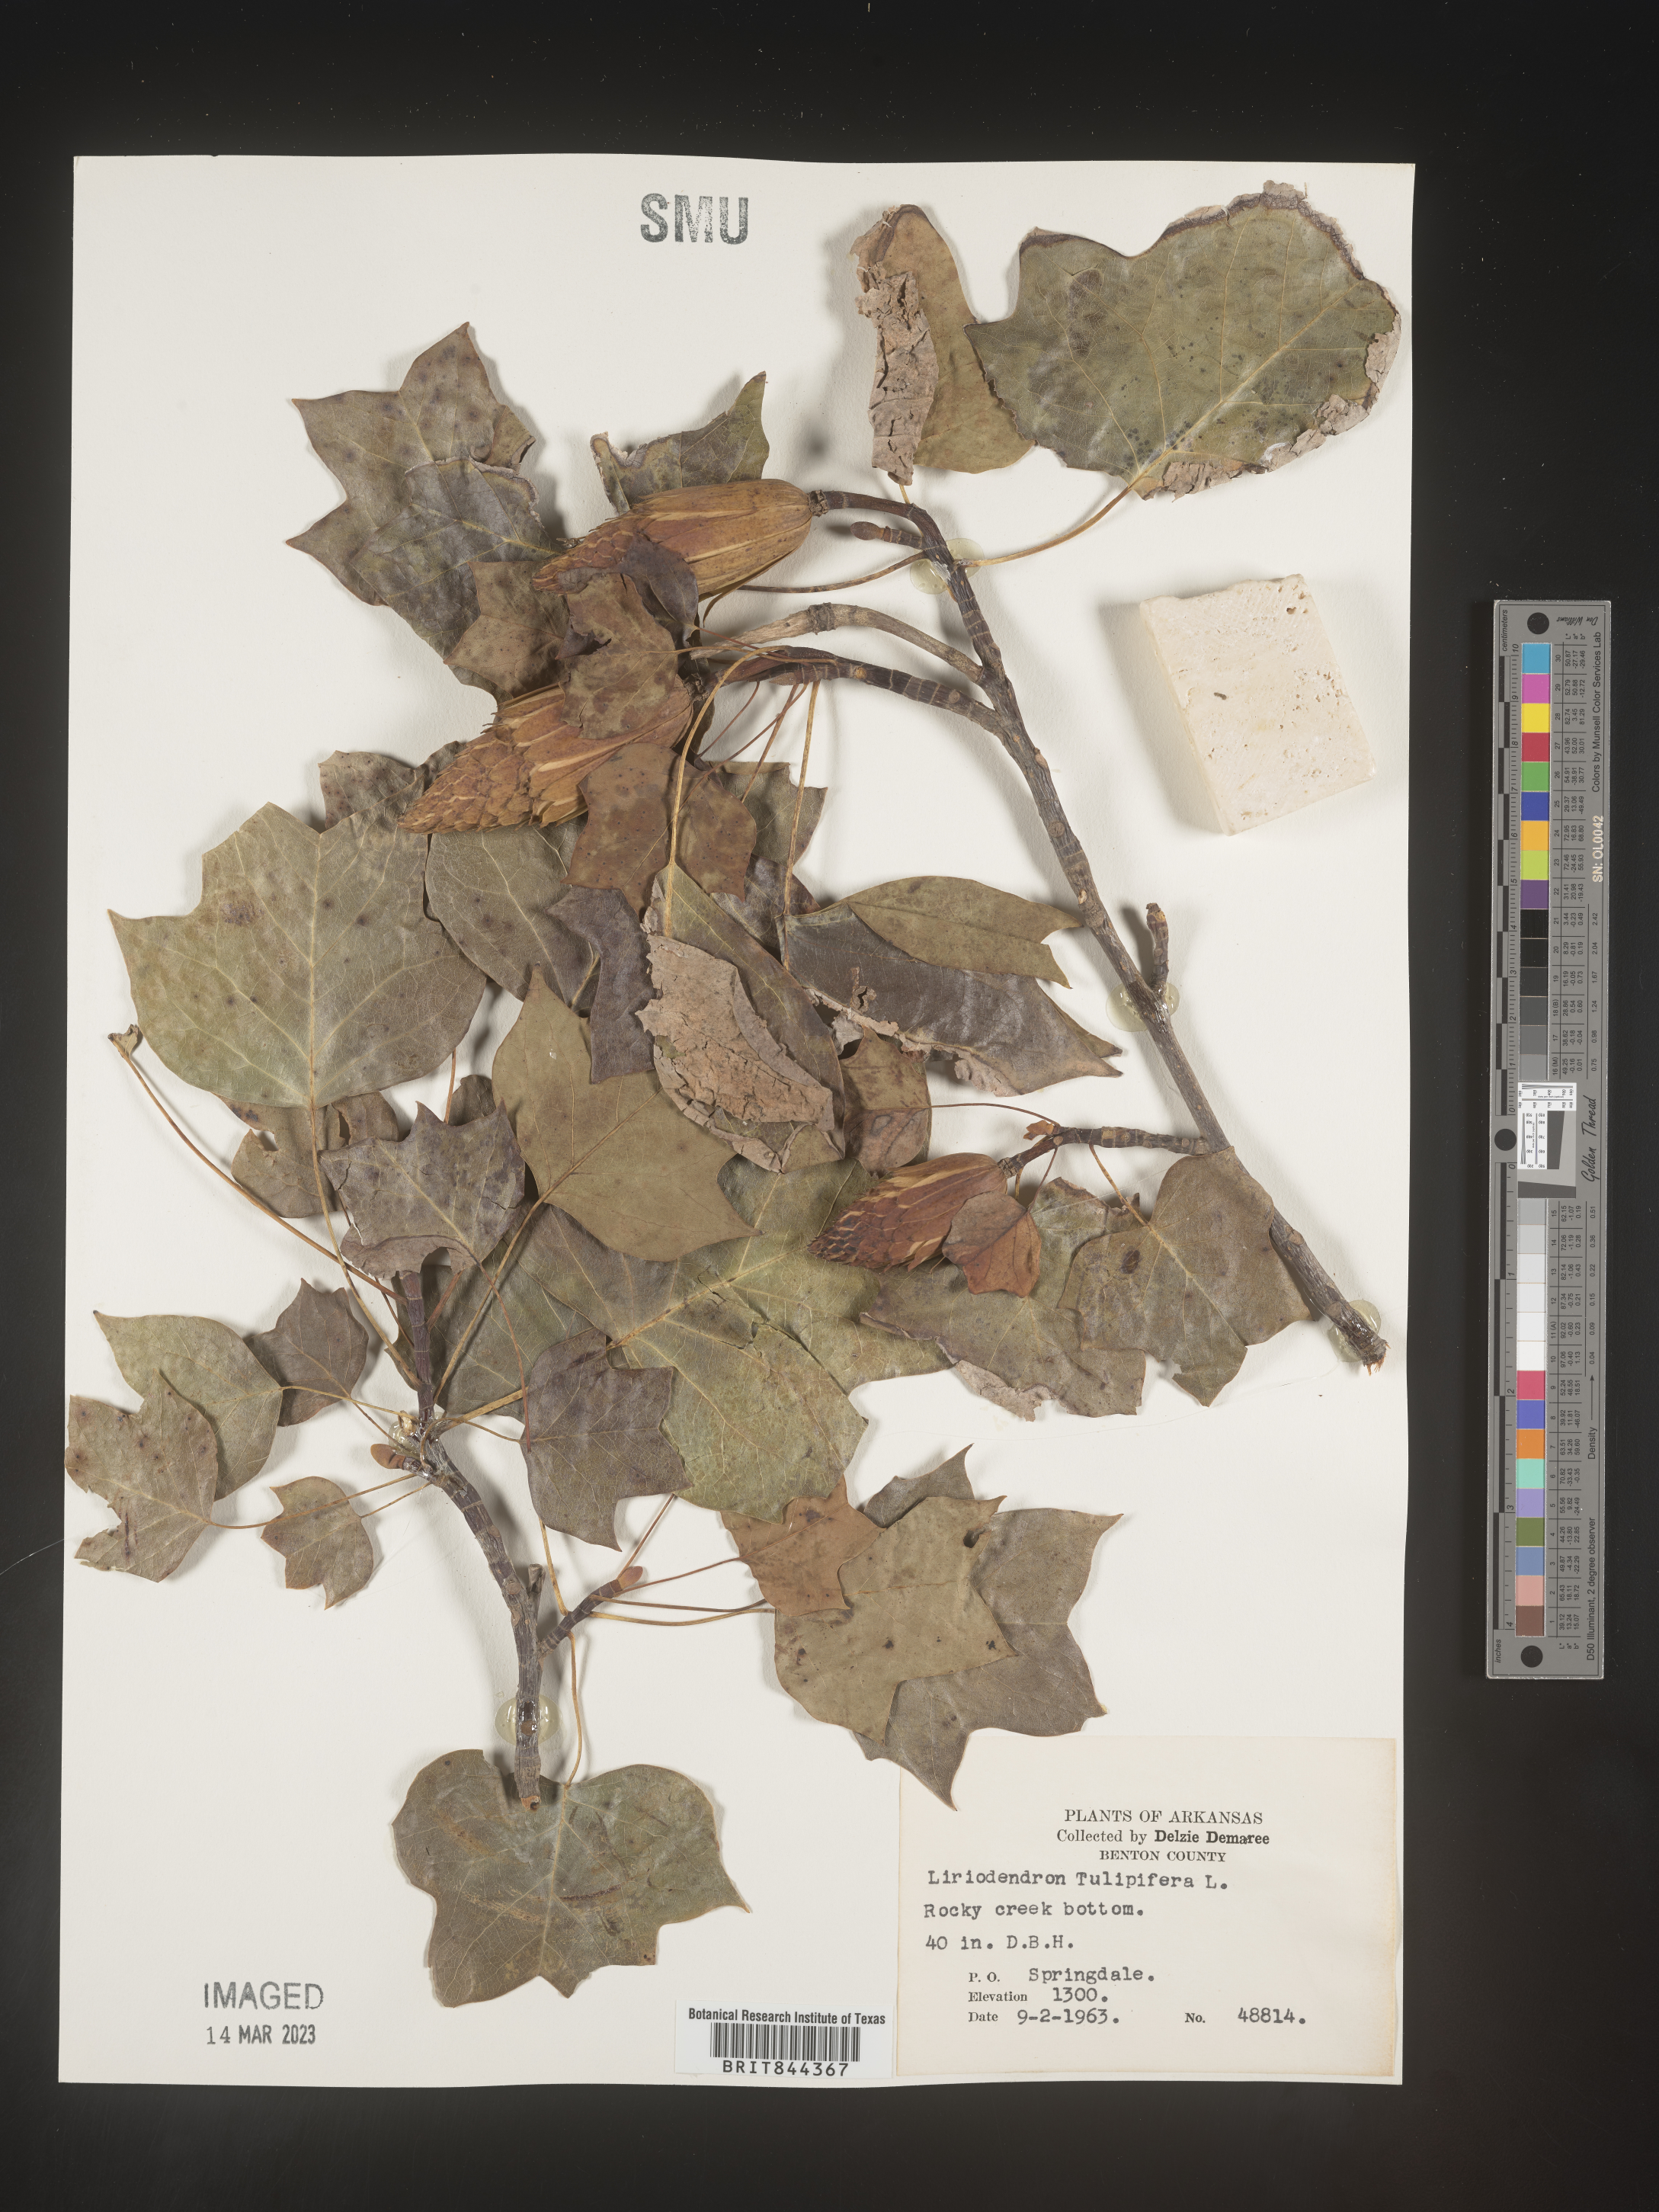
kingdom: Plantae
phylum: Tracheophyta
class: Magnoliopsida
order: Magnoliales
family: Magnoliaceae
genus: Liriodendron
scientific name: Liriodendron tulipifera
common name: Tulip tree
